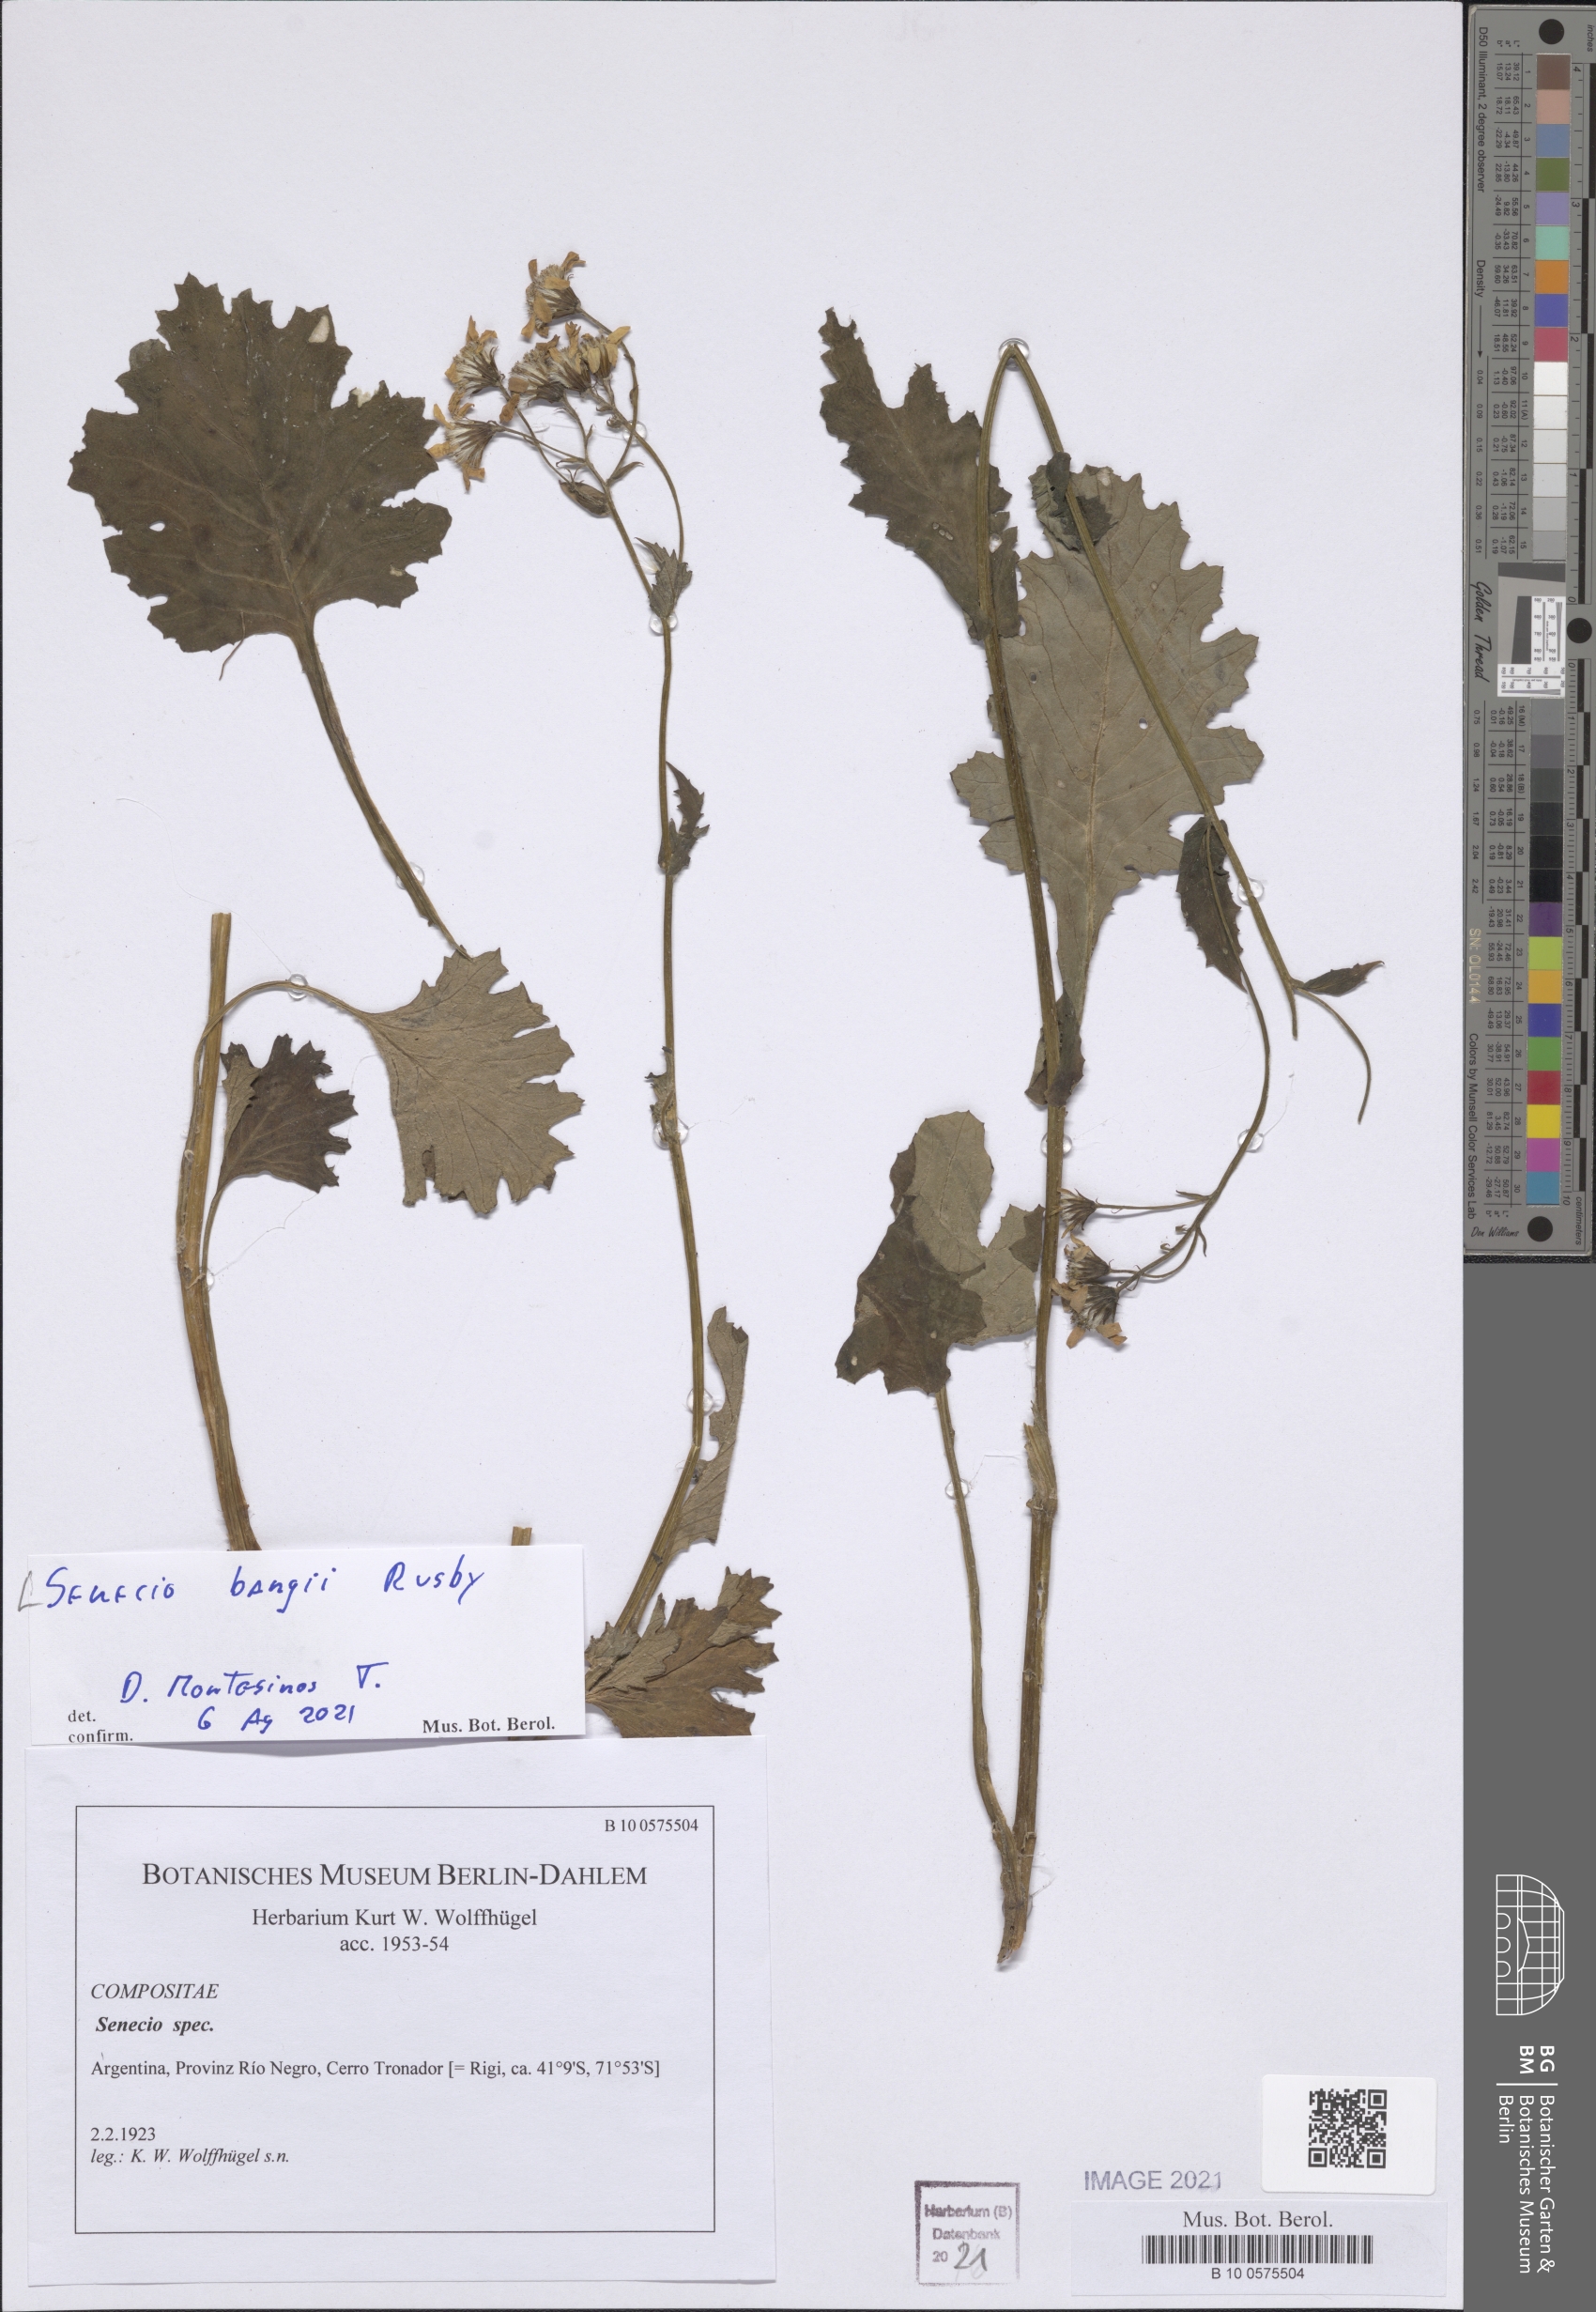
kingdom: Plantae
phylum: Tracheophyta
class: Magnoliopsida
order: Asterales
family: Asteraceae
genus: Lomanthus
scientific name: Lomanthus bangii
